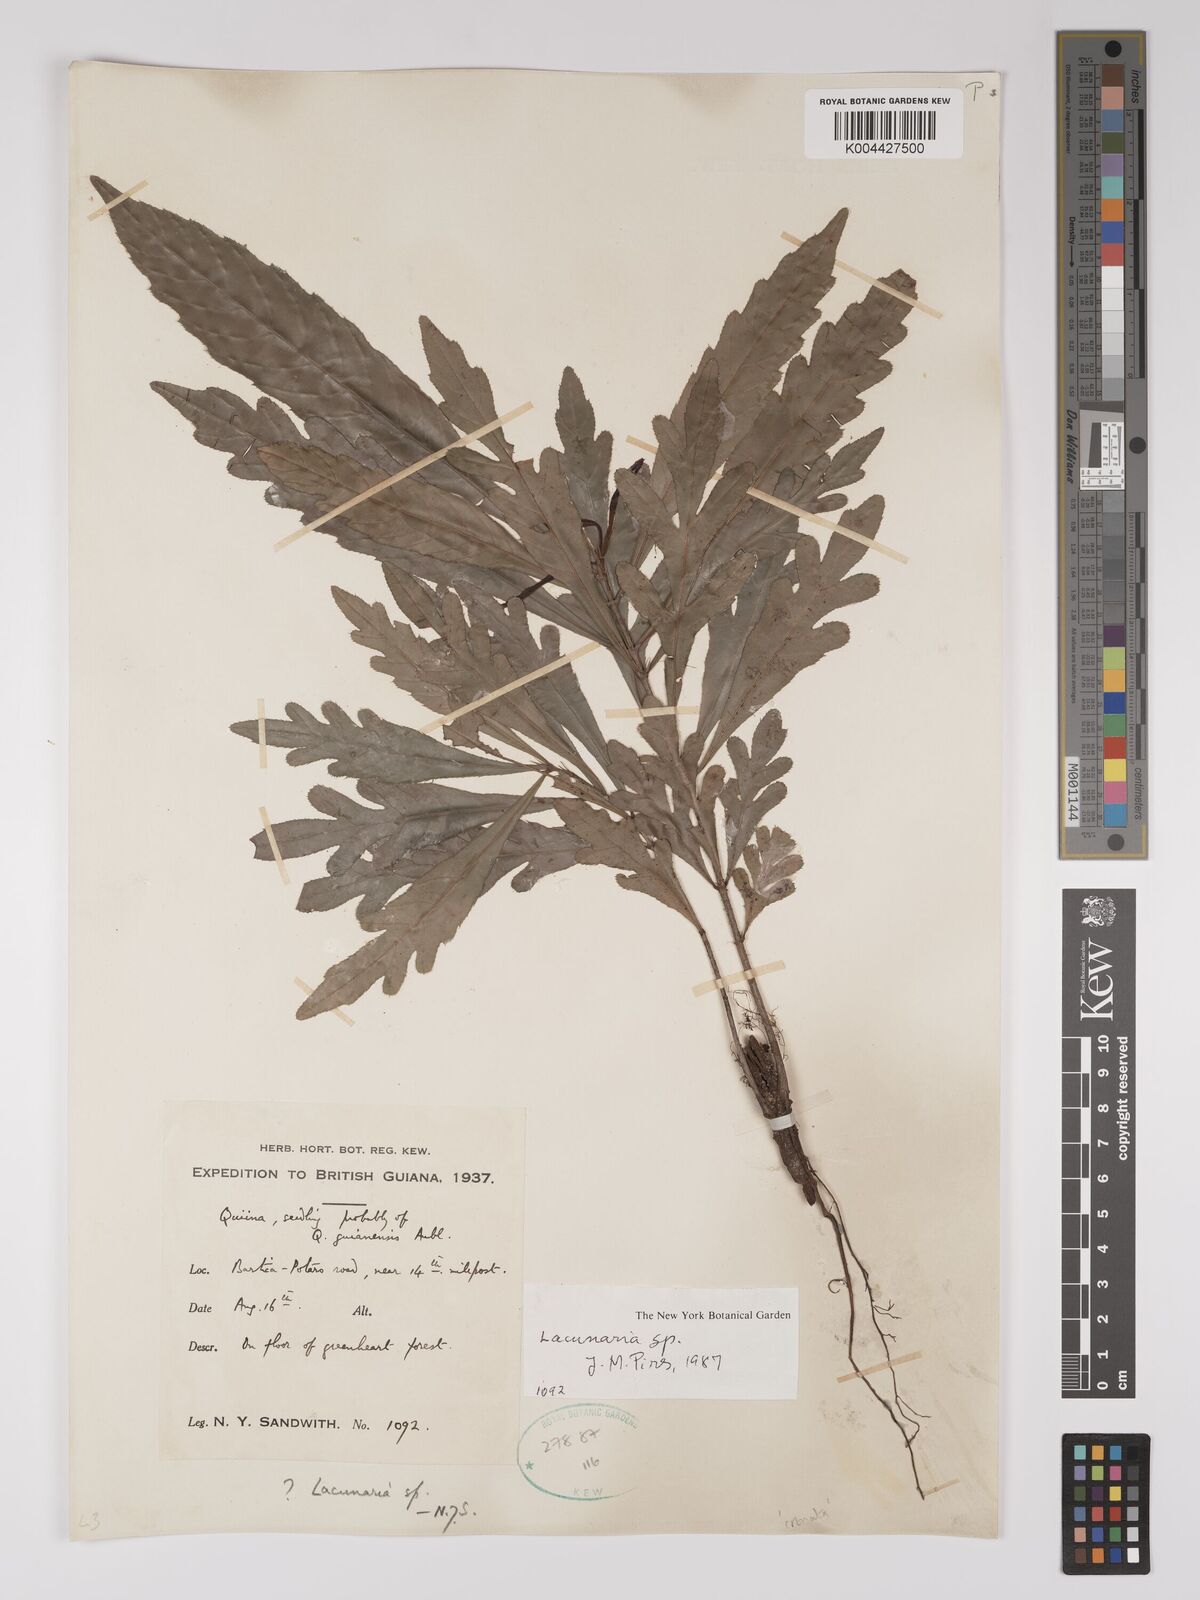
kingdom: Plantae
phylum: Tracheophyta
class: Magnoliopsida
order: Malpighiales
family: Quiinaceae
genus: Lacunaria
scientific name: Lacunaria
